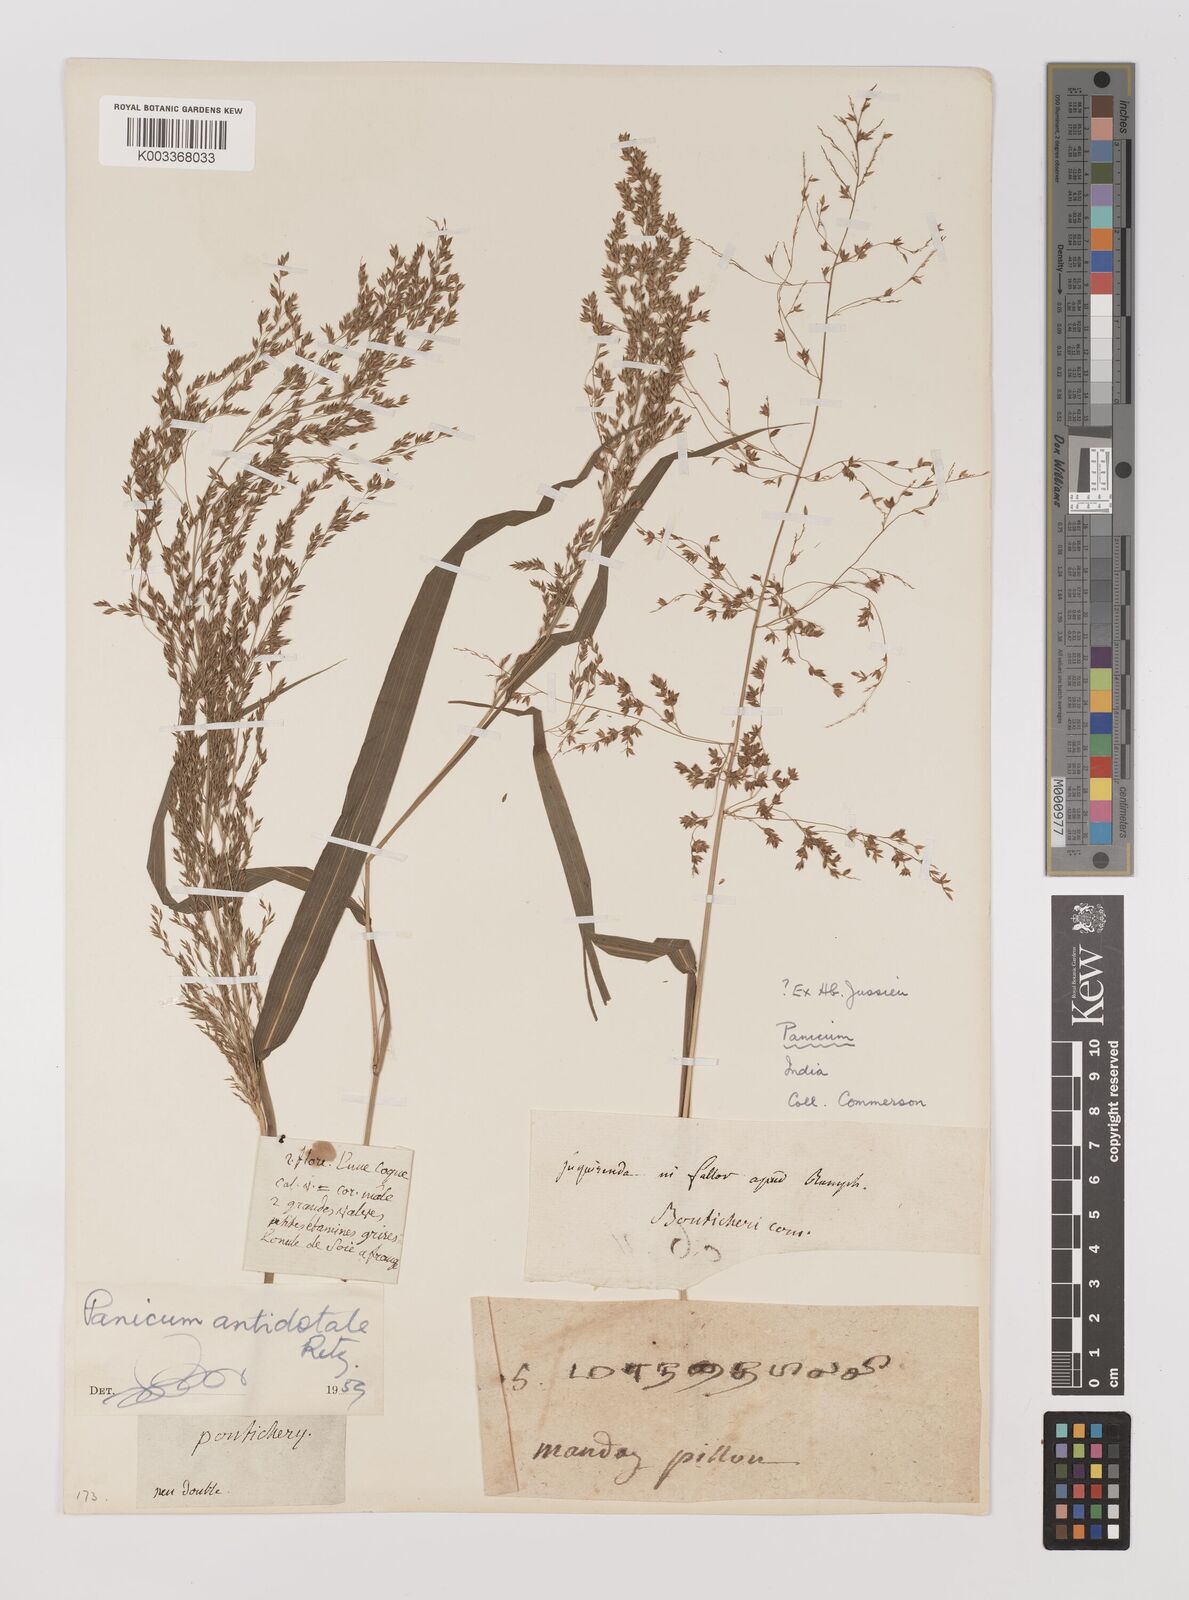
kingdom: Plantae
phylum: Tracheophyta
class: Liliopsida
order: Poales
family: Poaceae
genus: Panicum
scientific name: Panicum antidotale
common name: Blue panicum
